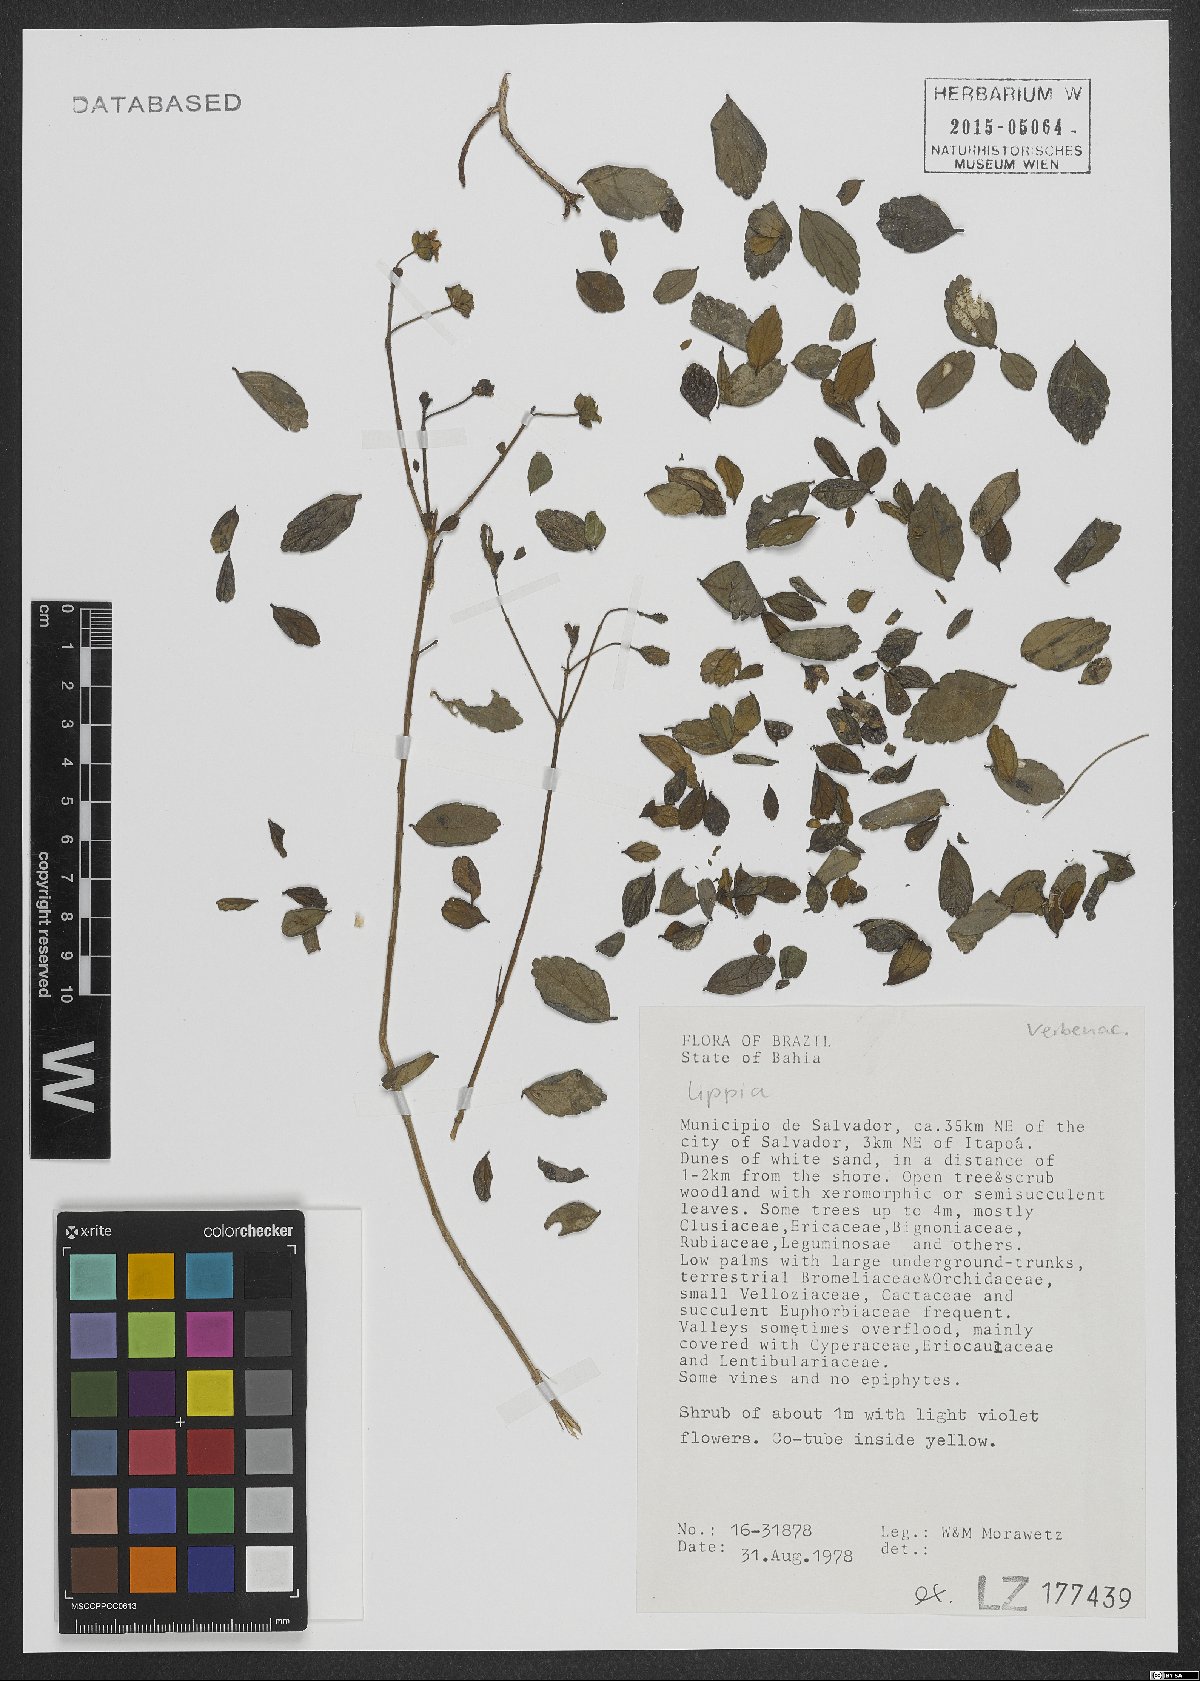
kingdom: Plantae
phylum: Tracheophyta
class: Magnoliopsida
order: Lamiales
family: Verbenaceae
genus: Lippia
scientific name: Lippia
